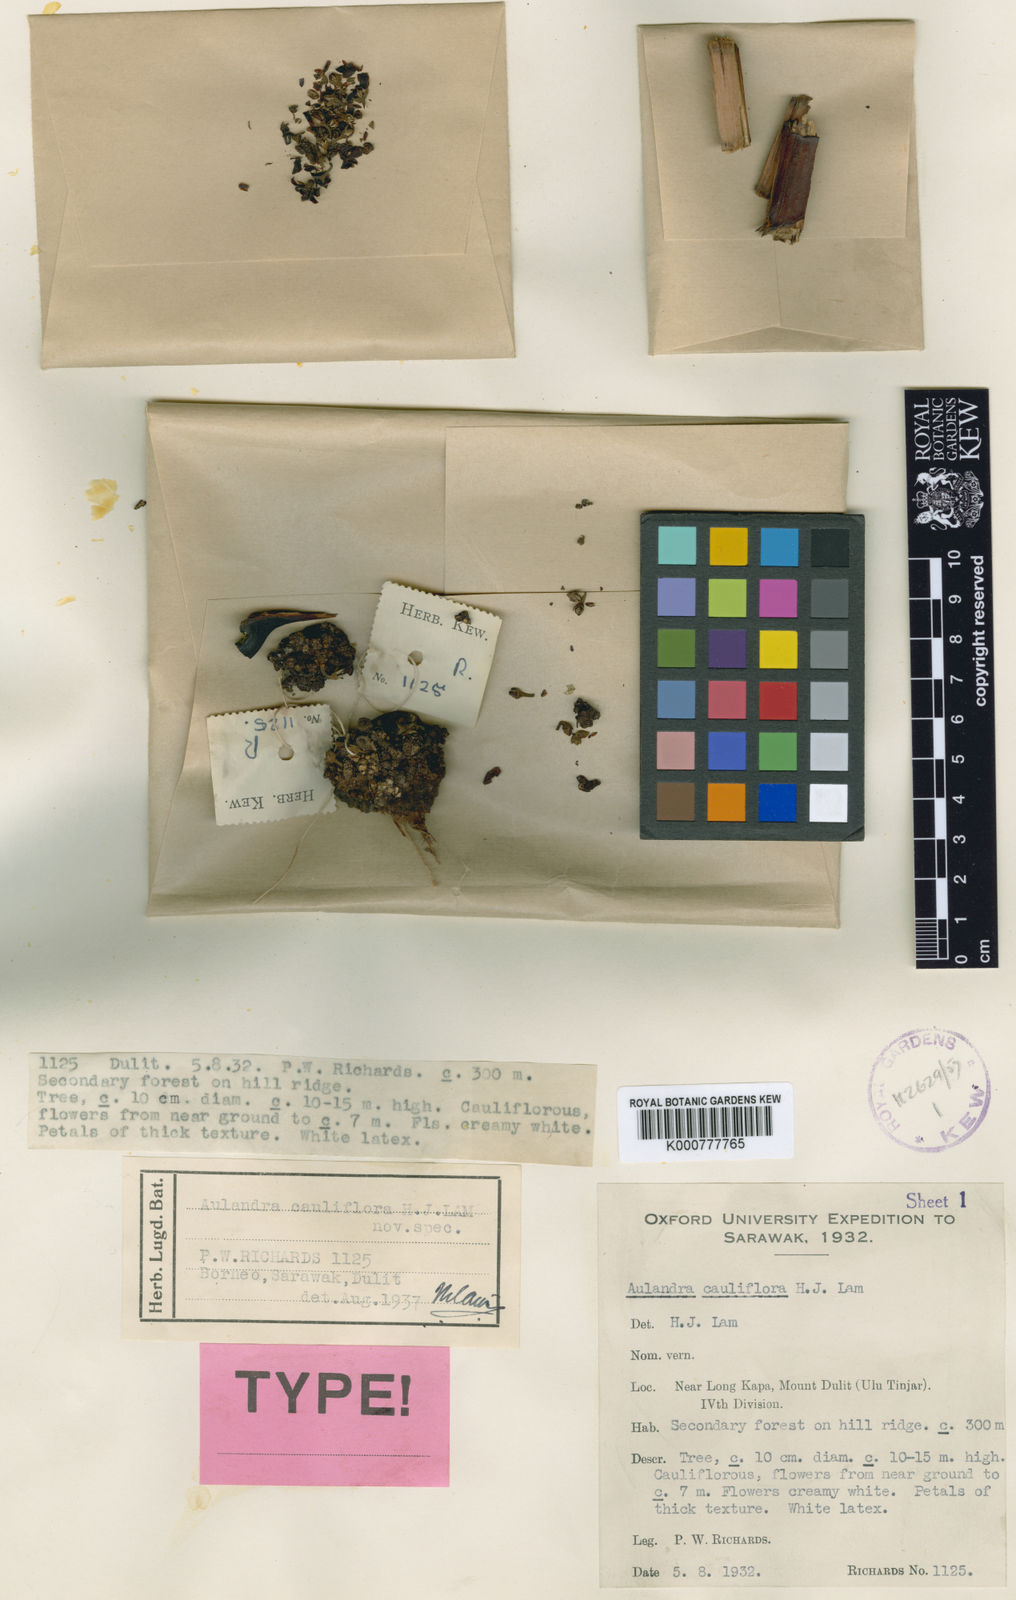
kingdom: Plantae
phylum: Tracheophyta
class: Magnoliopsida
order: Ericales
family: Sapotaceae
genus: Aulandra
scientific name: Aulandra cauliflora
